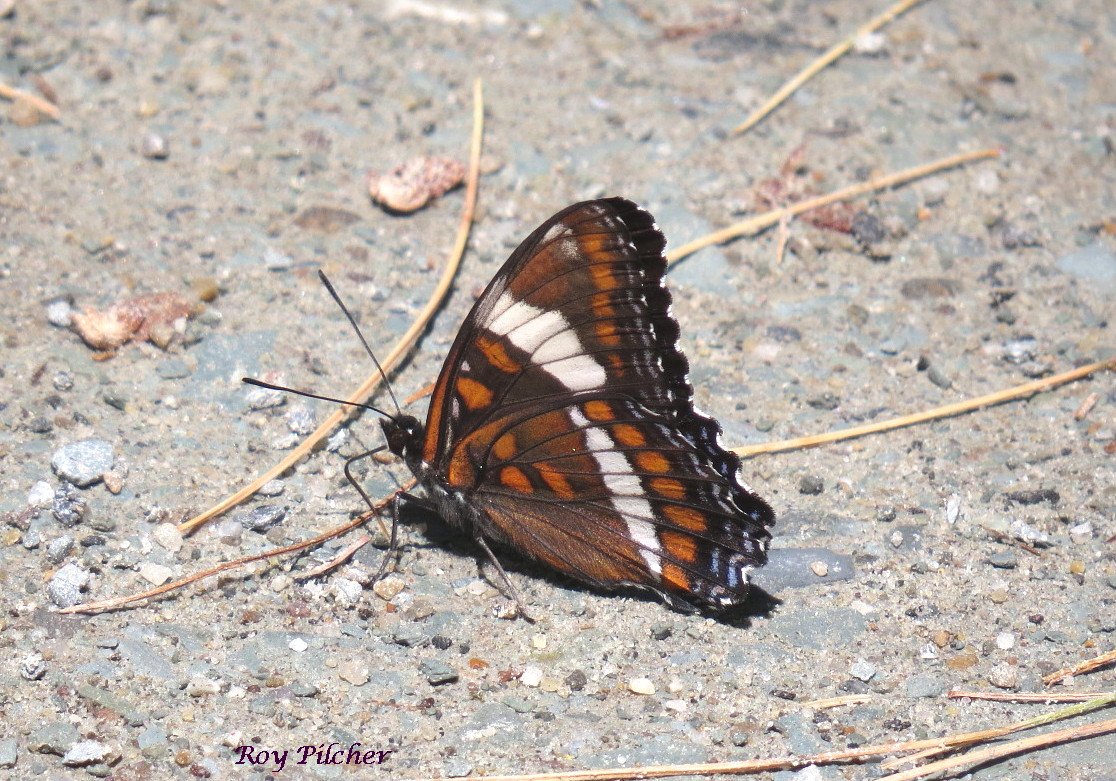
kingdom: Animalia
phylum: Arthropoda
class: Insecta
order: Lepidoptera
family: Nymphalidae
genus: Limenitis
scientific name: Limenitis arthemis
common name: Red-spotted Admiral
